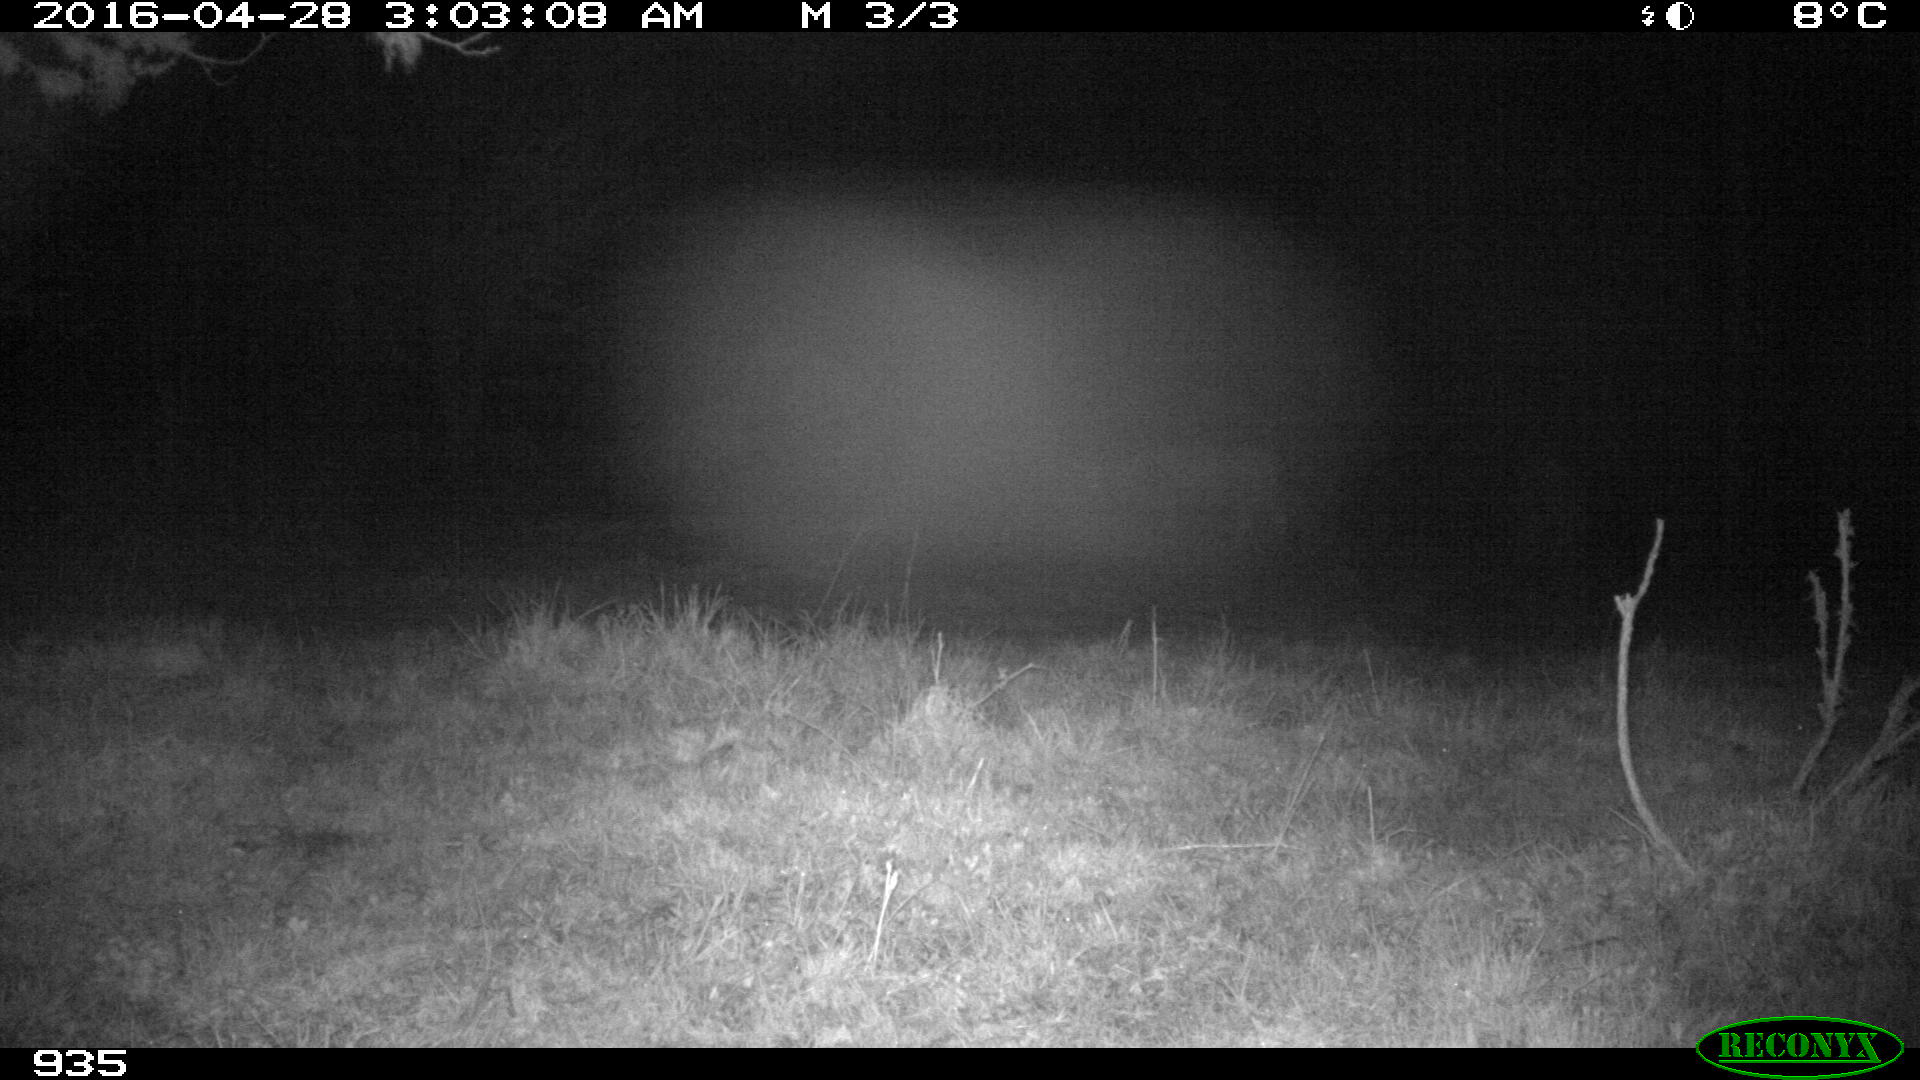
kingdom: Animalia
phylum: Chordata
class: Mammalia
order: Artiodactyla
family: Bovidae
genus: Bos
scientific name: Bos taurus
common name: Domesticated cattle
